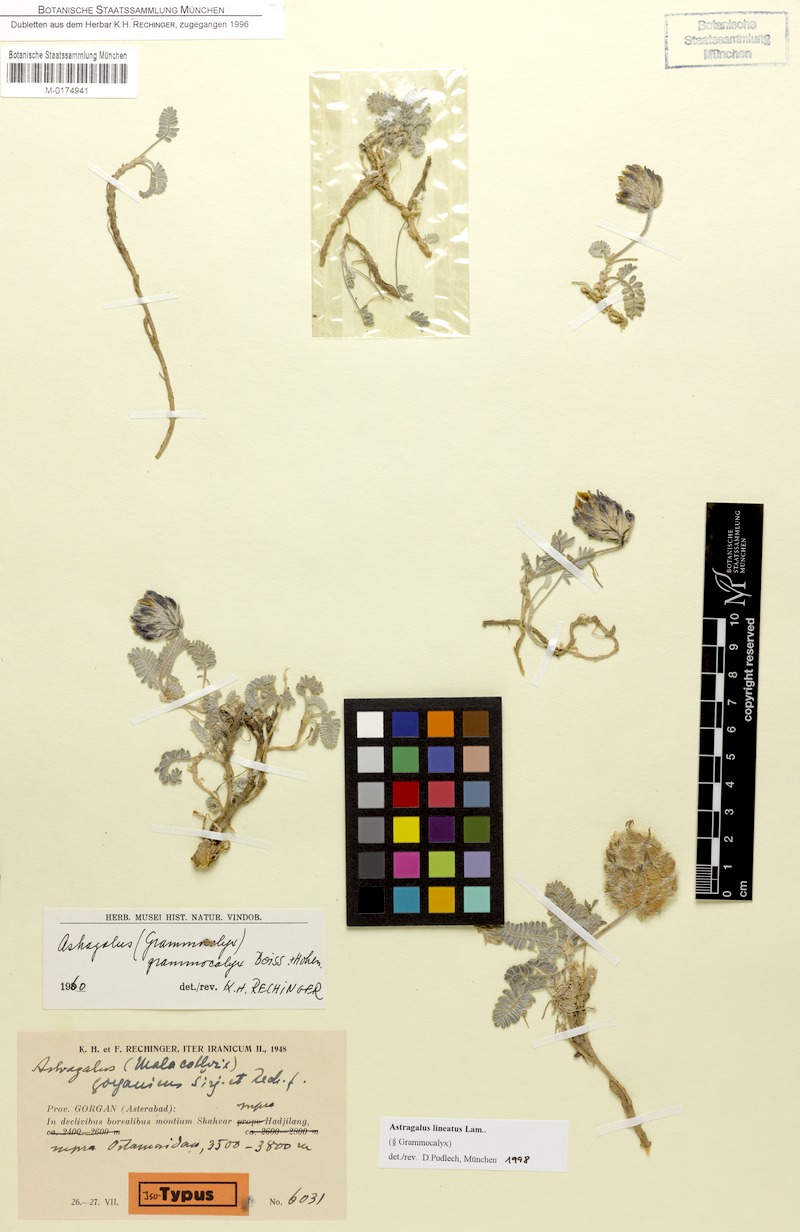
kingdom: Plantae
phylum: Tracheophyta
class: Magnoliopsida
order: Fabales
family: Fabaceae
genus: Astragalus
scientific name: Astragalus lineatus
